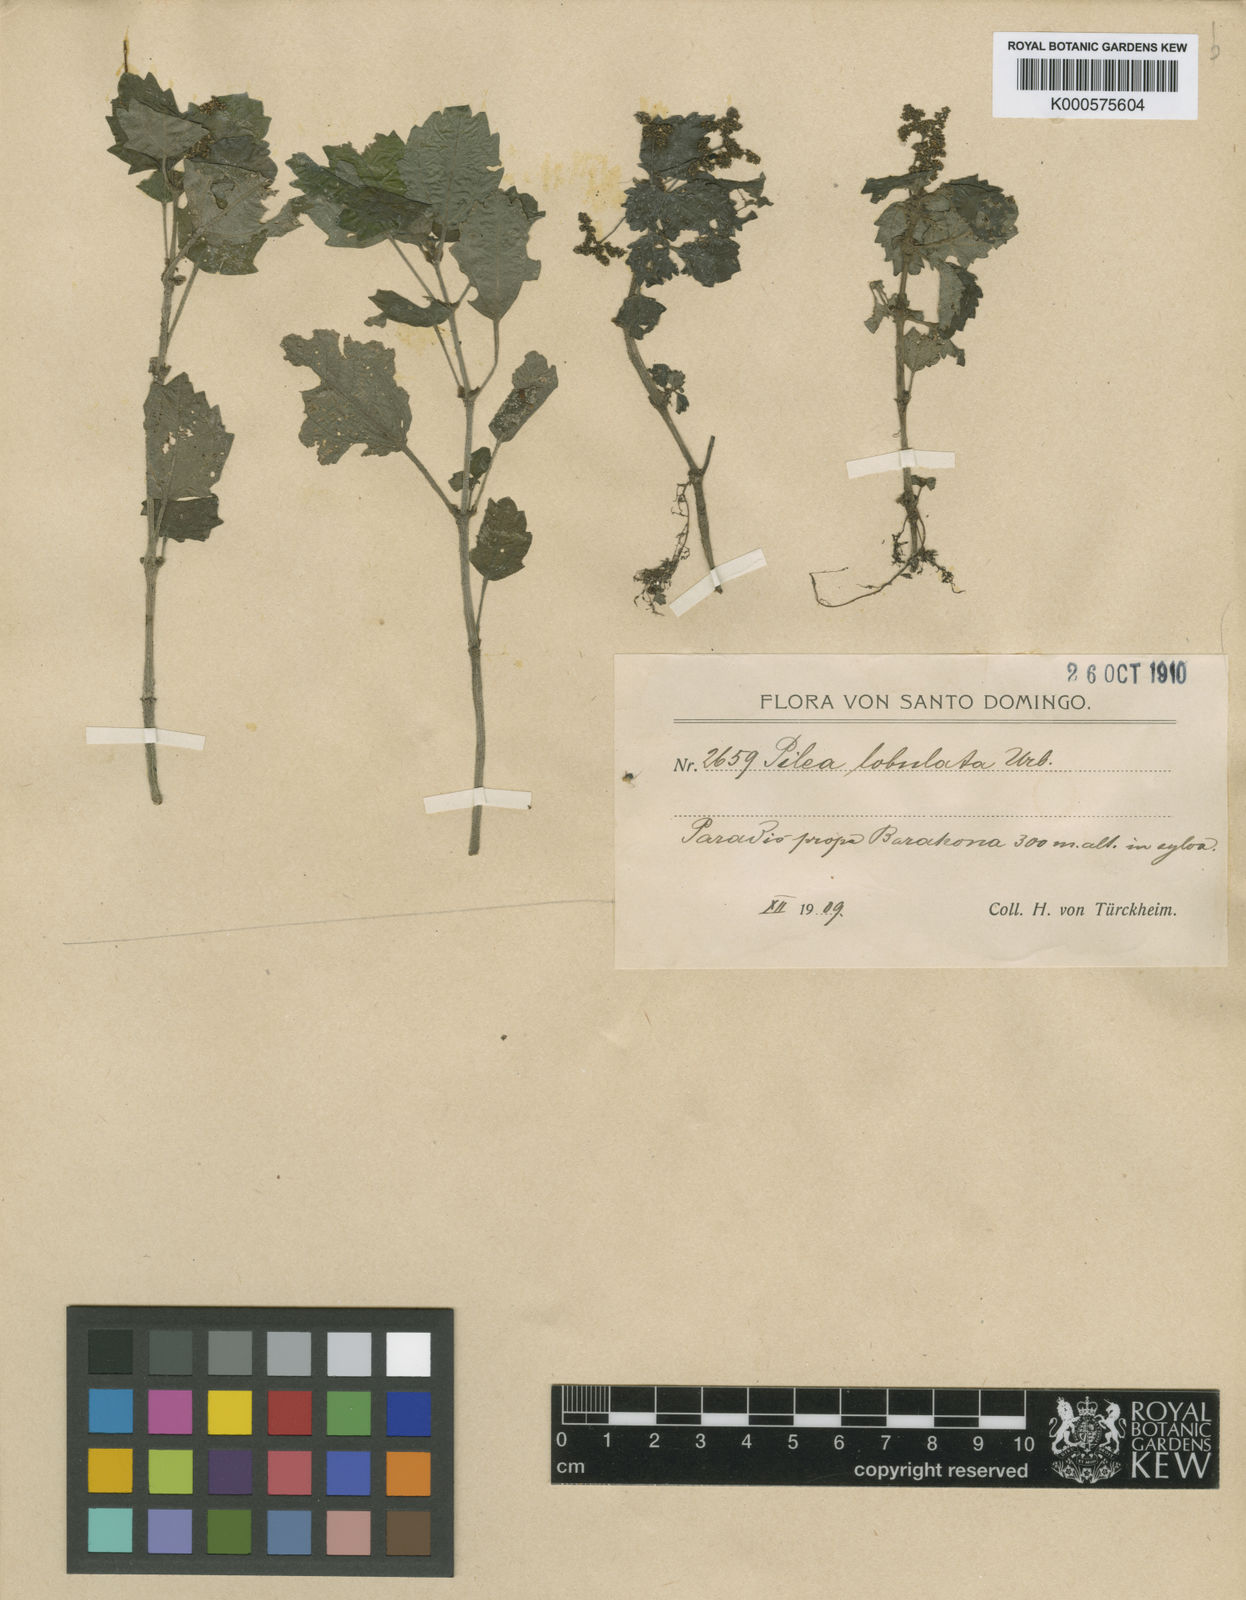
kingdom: Plantae
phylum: Tracheophyta
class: Magnoliopsida
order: Rosales
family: Urticaceae
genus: Pilea
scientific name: Pilea lobulata
